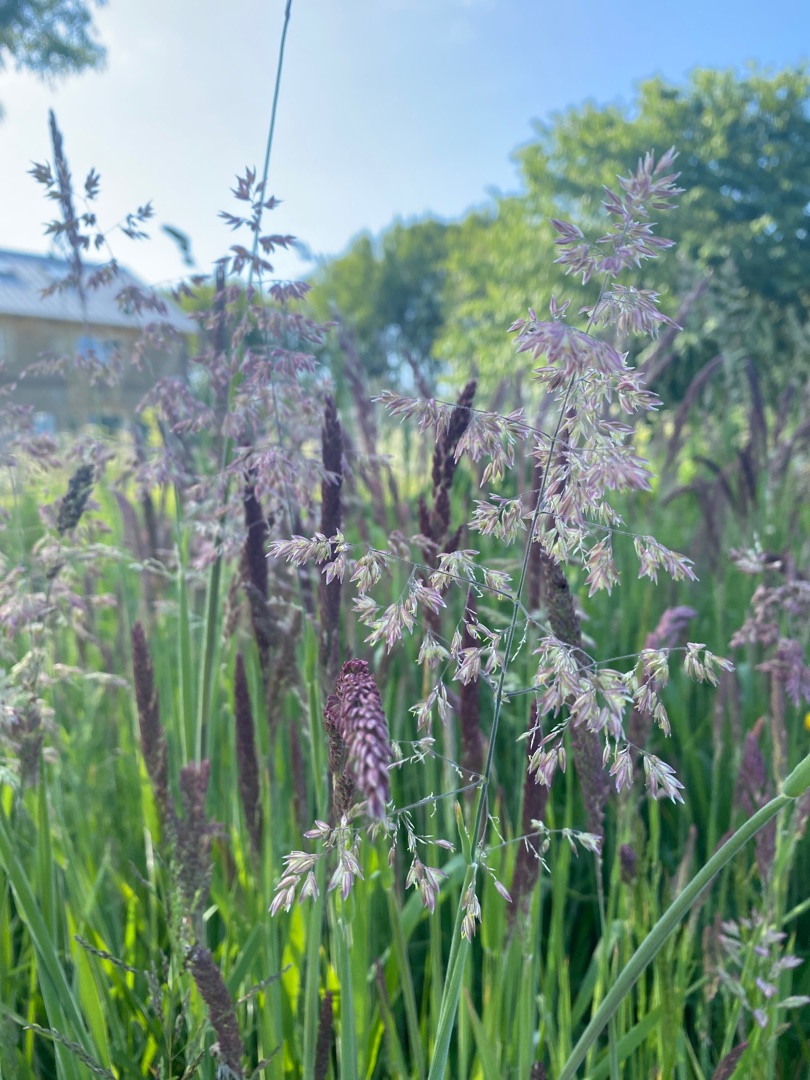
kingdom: Plantae
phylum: Tracheophyta
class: Liliopsida
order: Poales
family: Poaceae
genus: Holcus
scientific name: Holcus lanatus
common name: Fløjlsgræs
